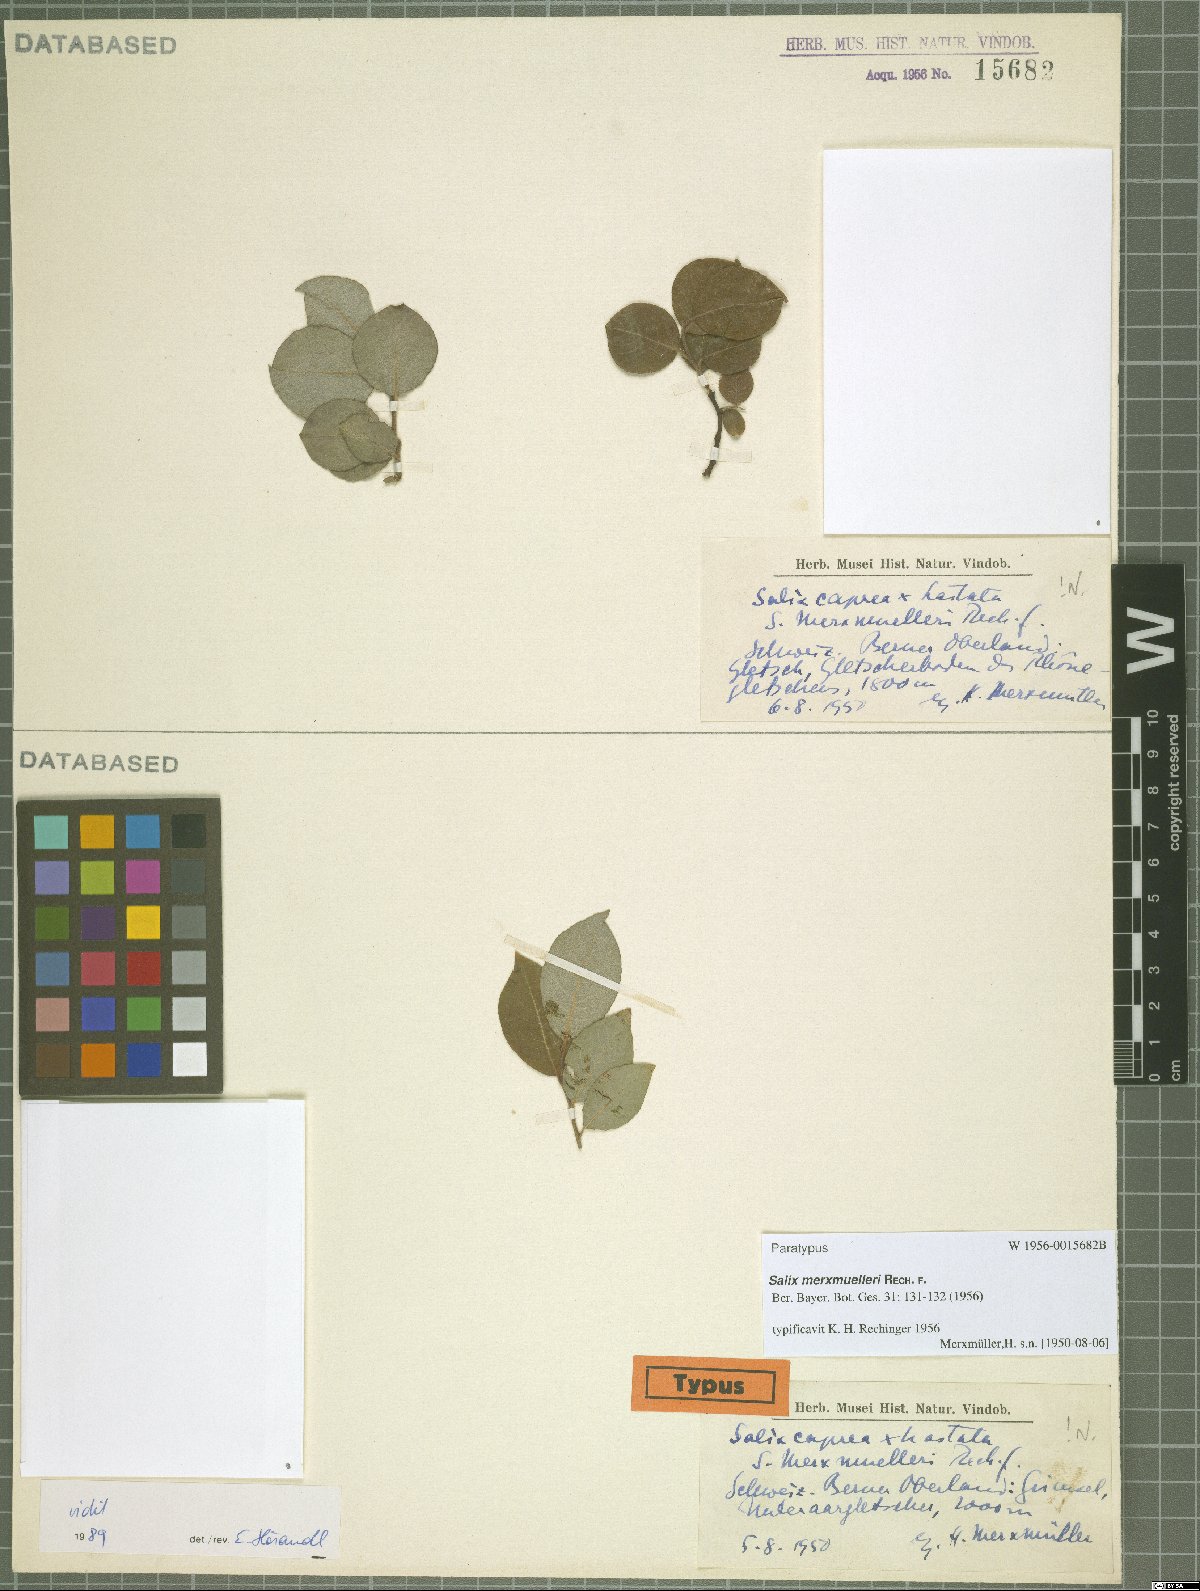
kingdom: Plantae
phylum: Tracheophyta
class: Magnoliopsida
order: Malpighiales
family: Salicaceae
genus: Salix
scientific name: Salix merxmuellerii
